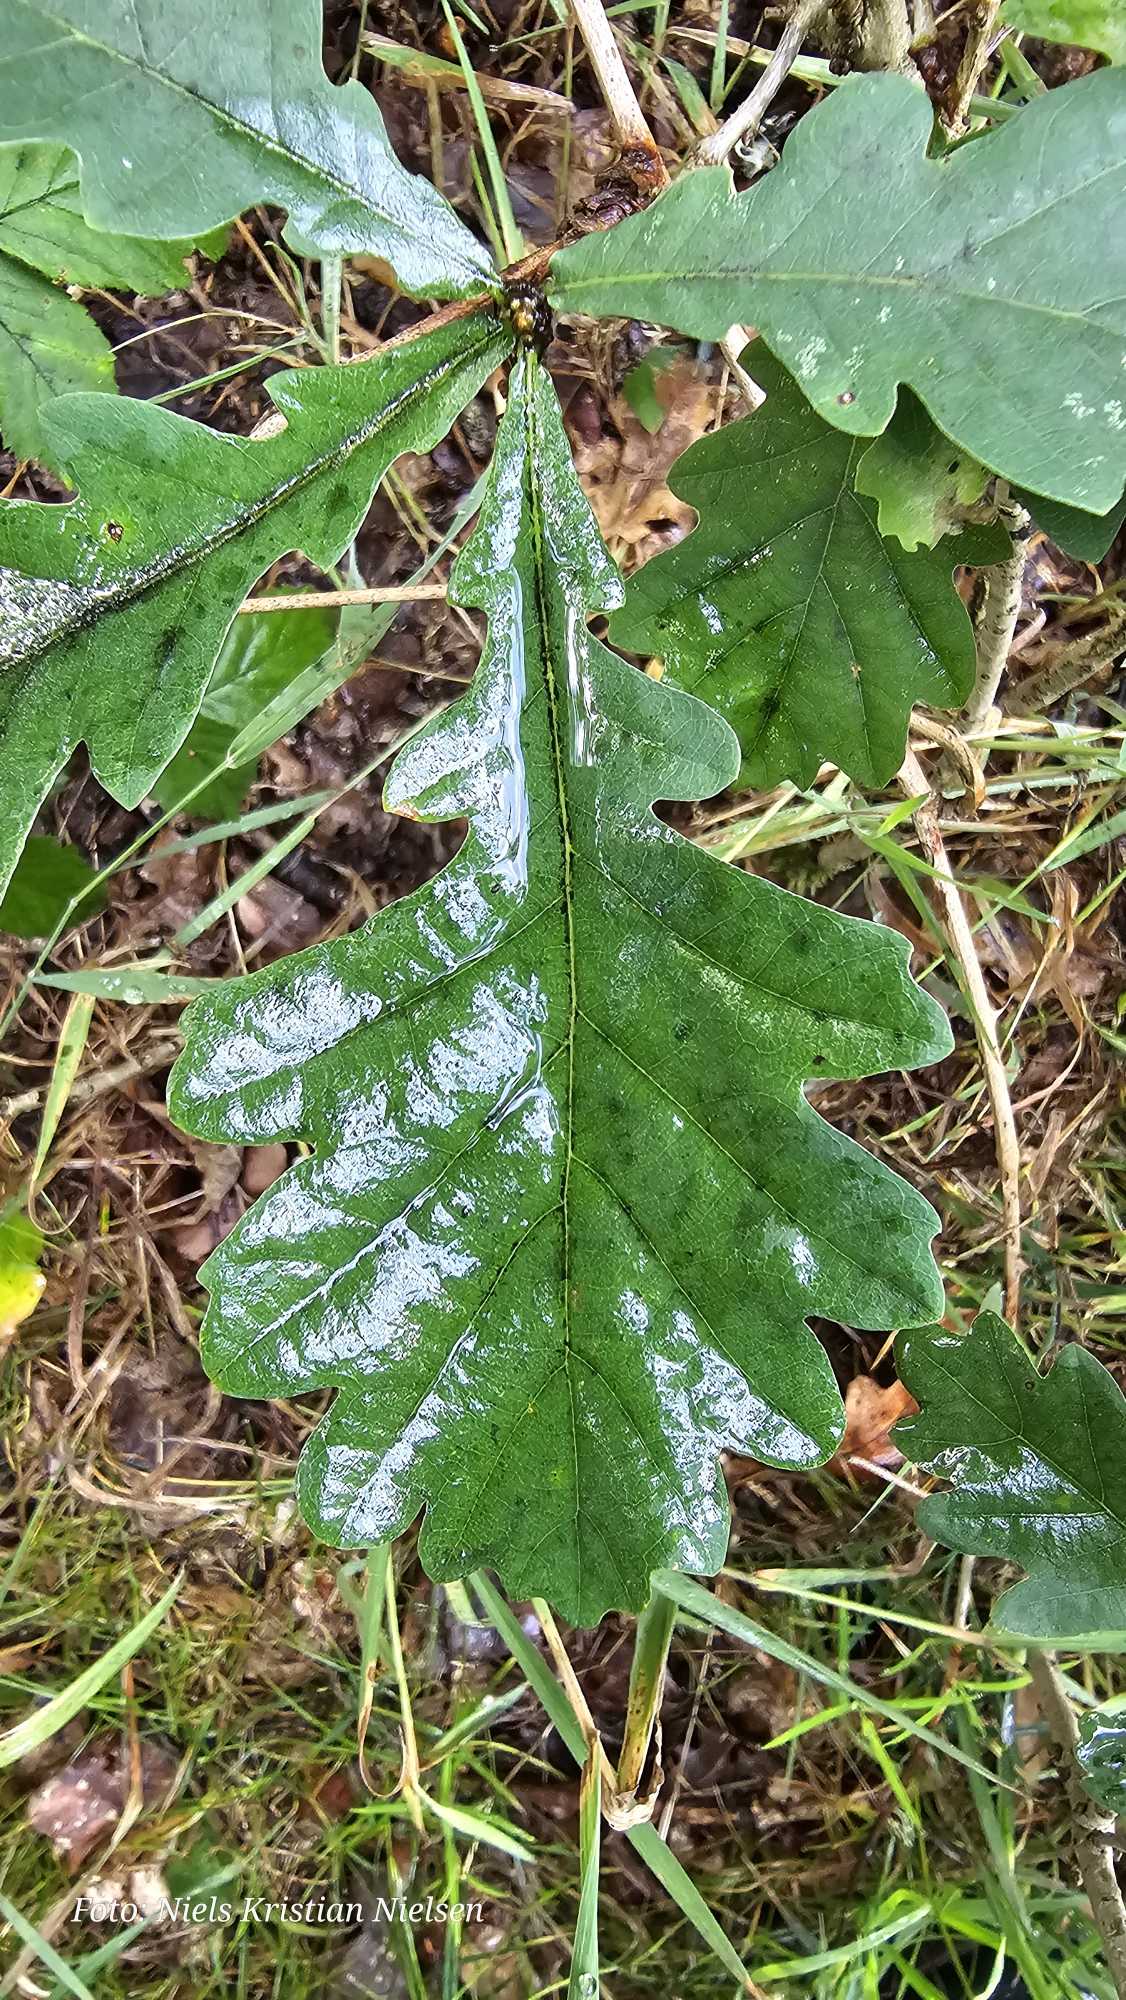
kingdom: Plantae
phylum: Tracheophyta
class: Magnoliopsida
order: Fagales
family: Fagaceae
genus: Quercus
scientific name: Quercus
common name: Egeslægten
